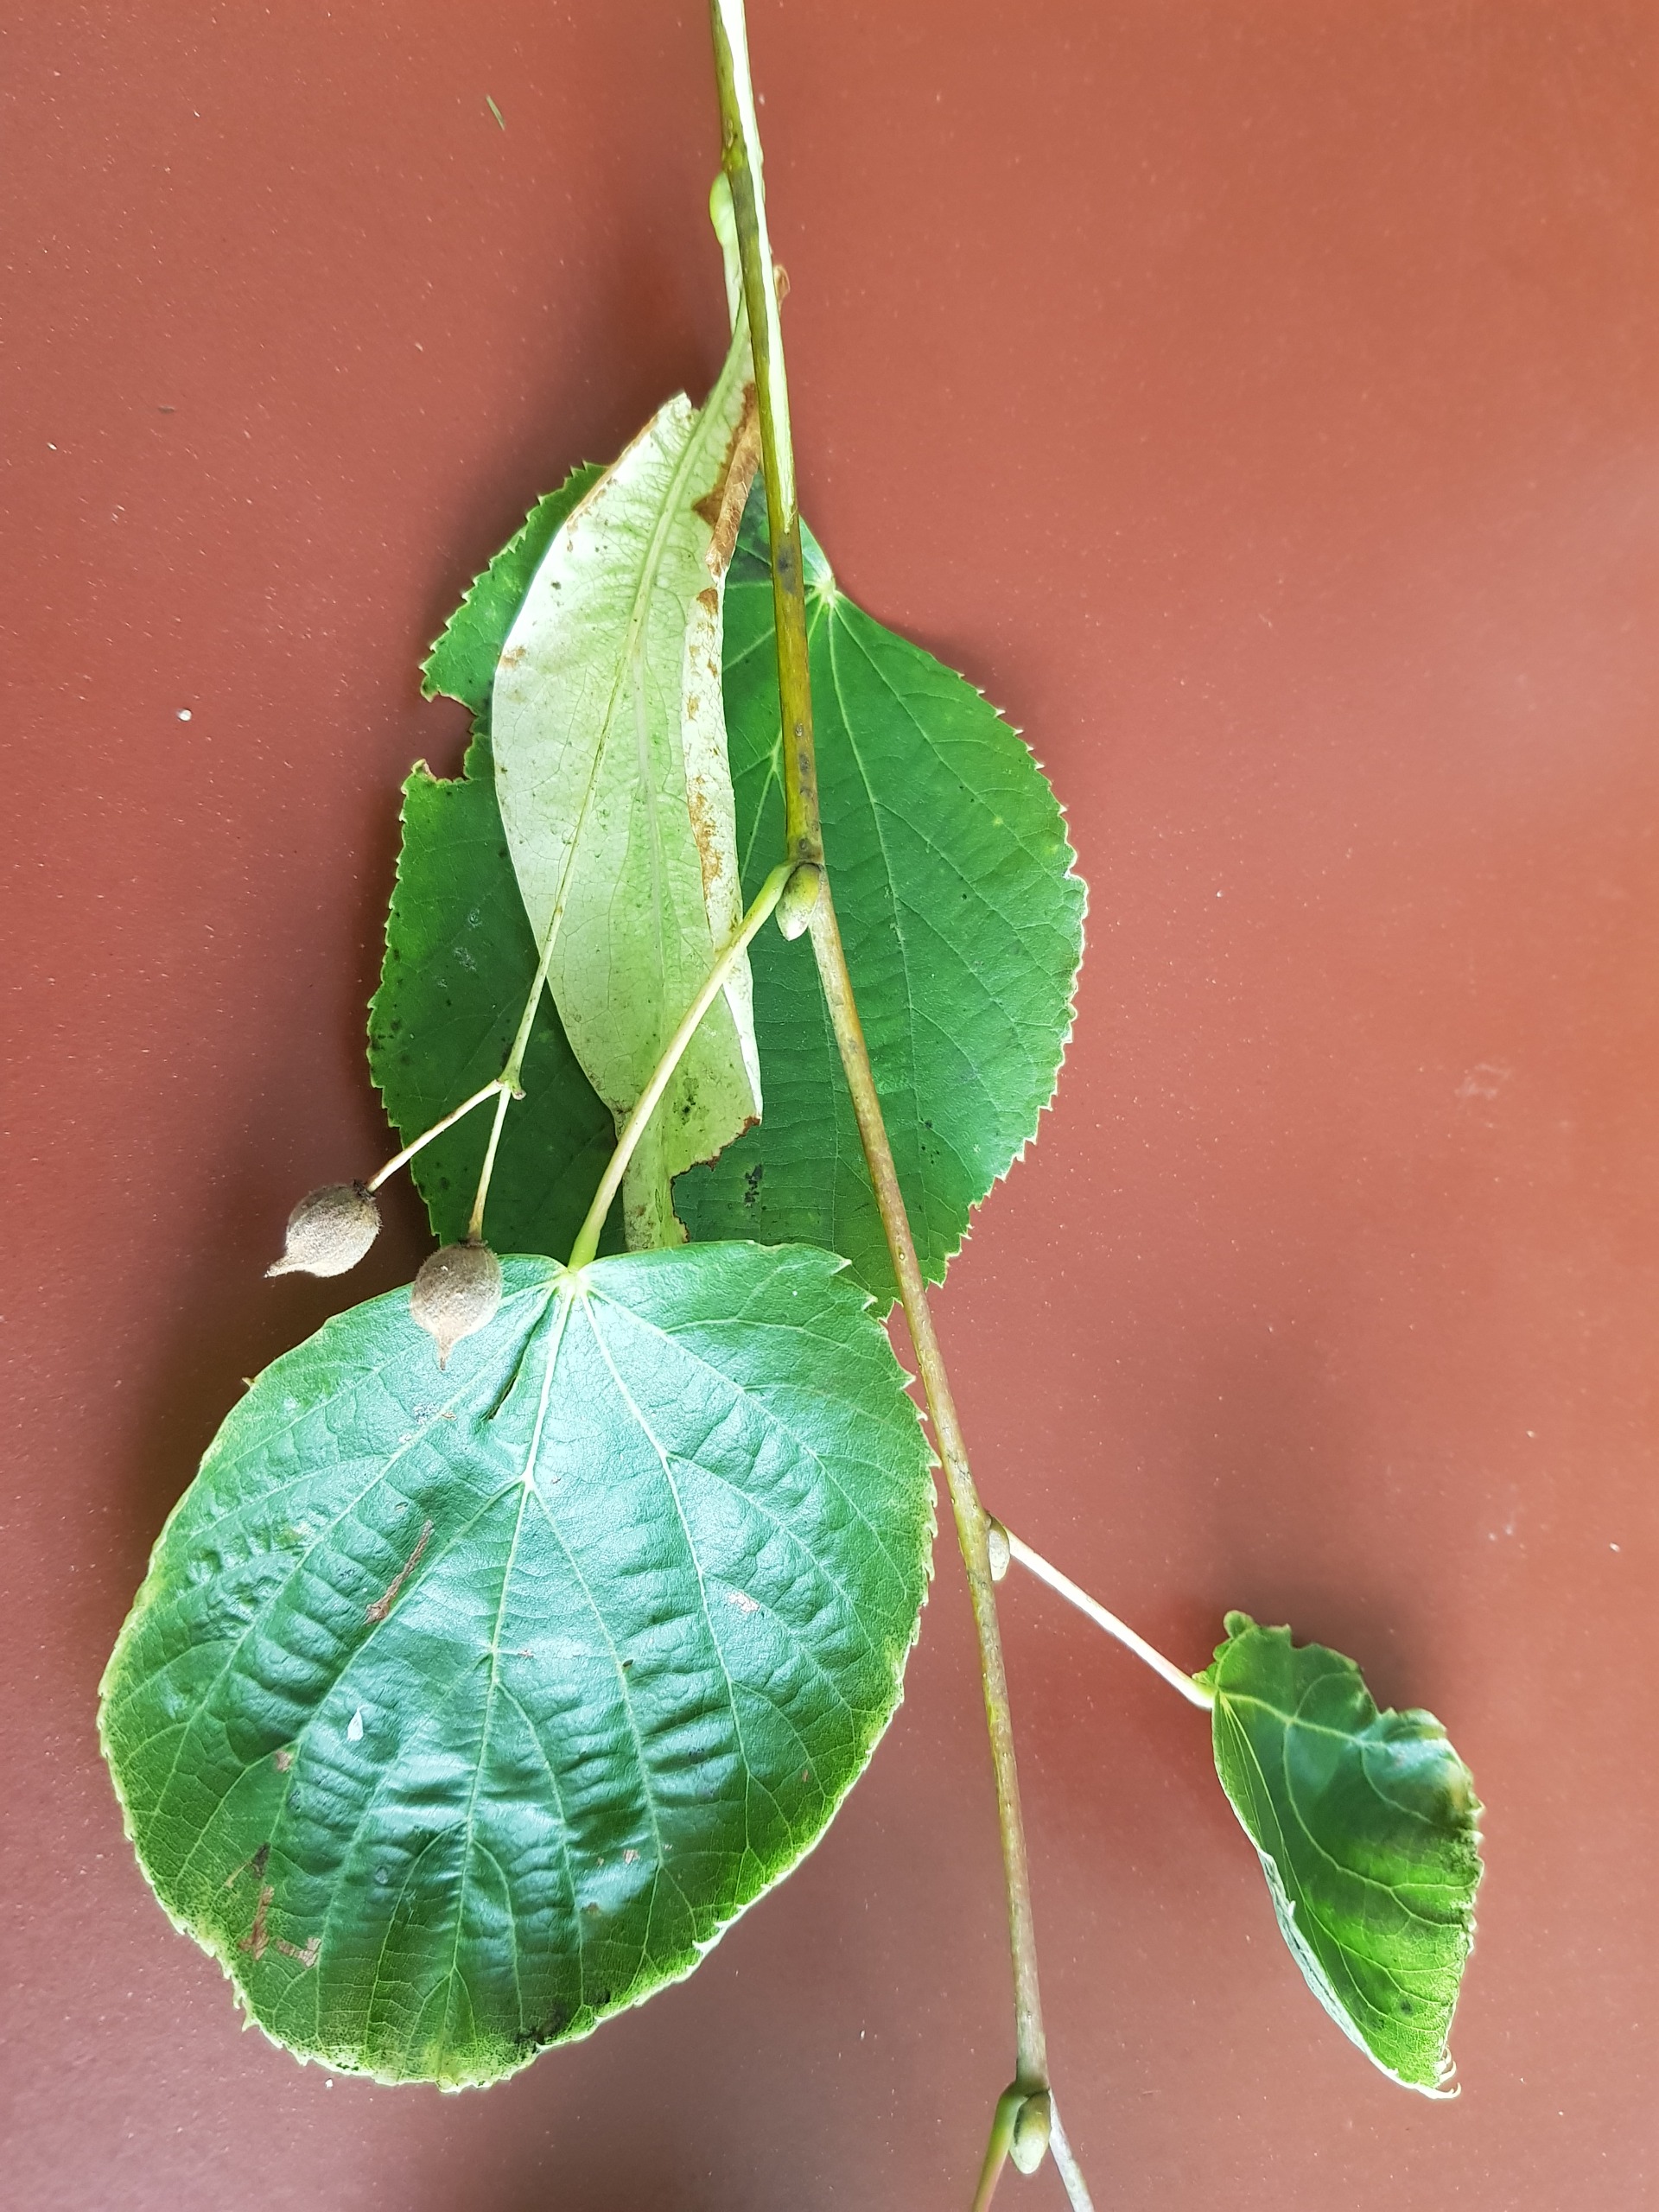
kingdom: Plantae
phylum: Tracheophyta
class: Magnoliopsida
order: Malvales
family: Malvaceae
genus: Tilia
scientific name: Tilia
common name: Lindeslægten
